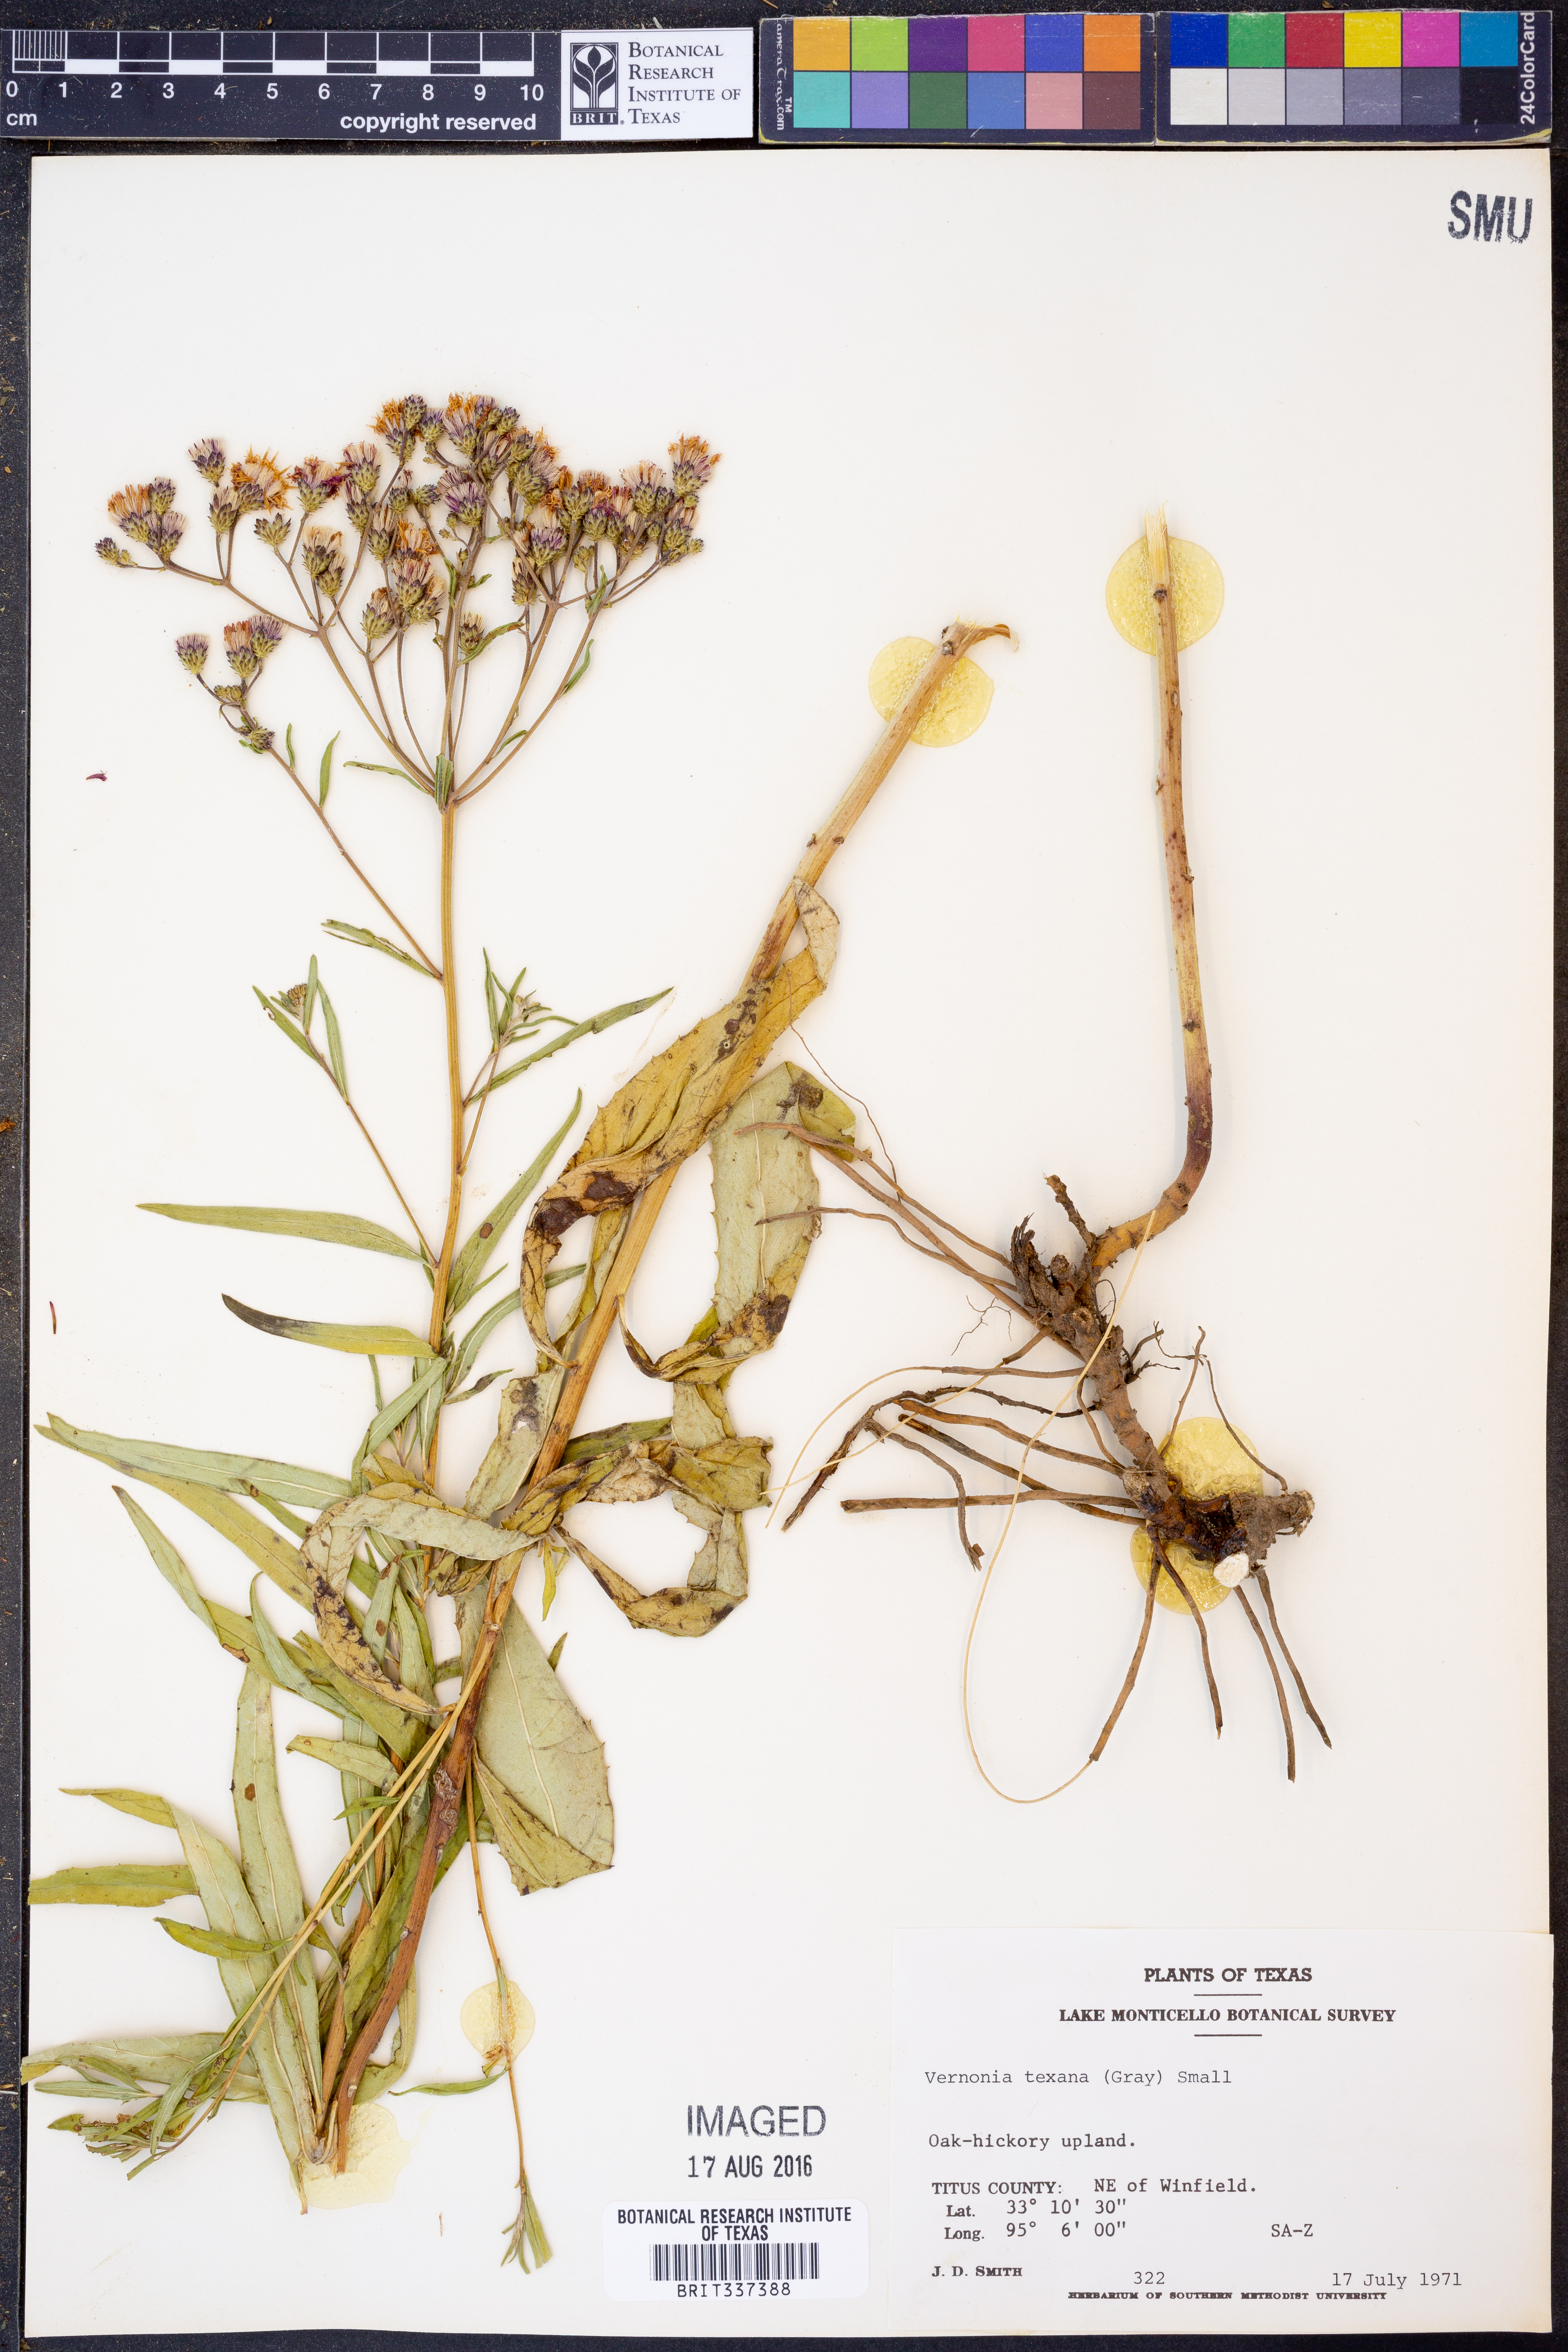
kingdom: Plantae
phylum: Tracheophyta
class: Magnoliopsida
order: Asterales
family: Asteraceae
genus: Vernonia
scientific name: Vernonia texana
